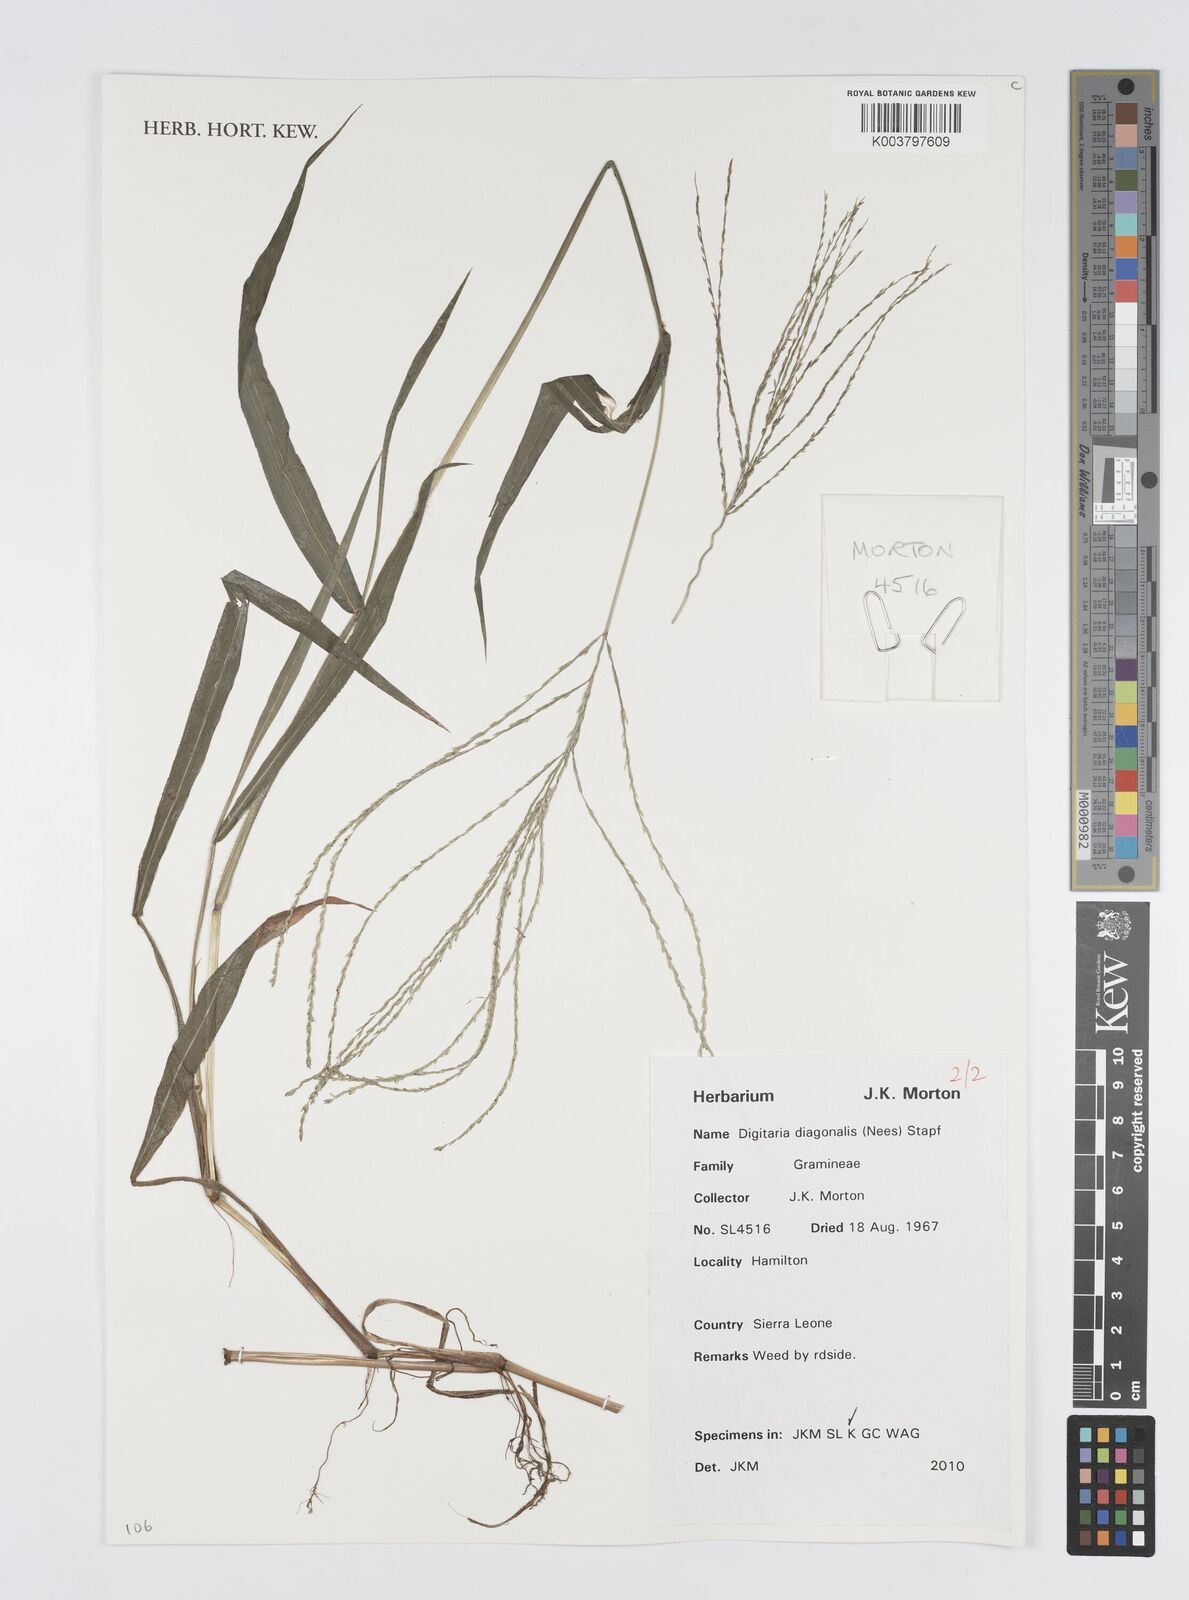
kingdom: Plantae
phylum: Tracheophyta
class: Liliopsida
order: Poales
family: Poaceae
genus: Digitaria
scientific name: Digitaria diagonalis
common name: Brown-seed finger grass
